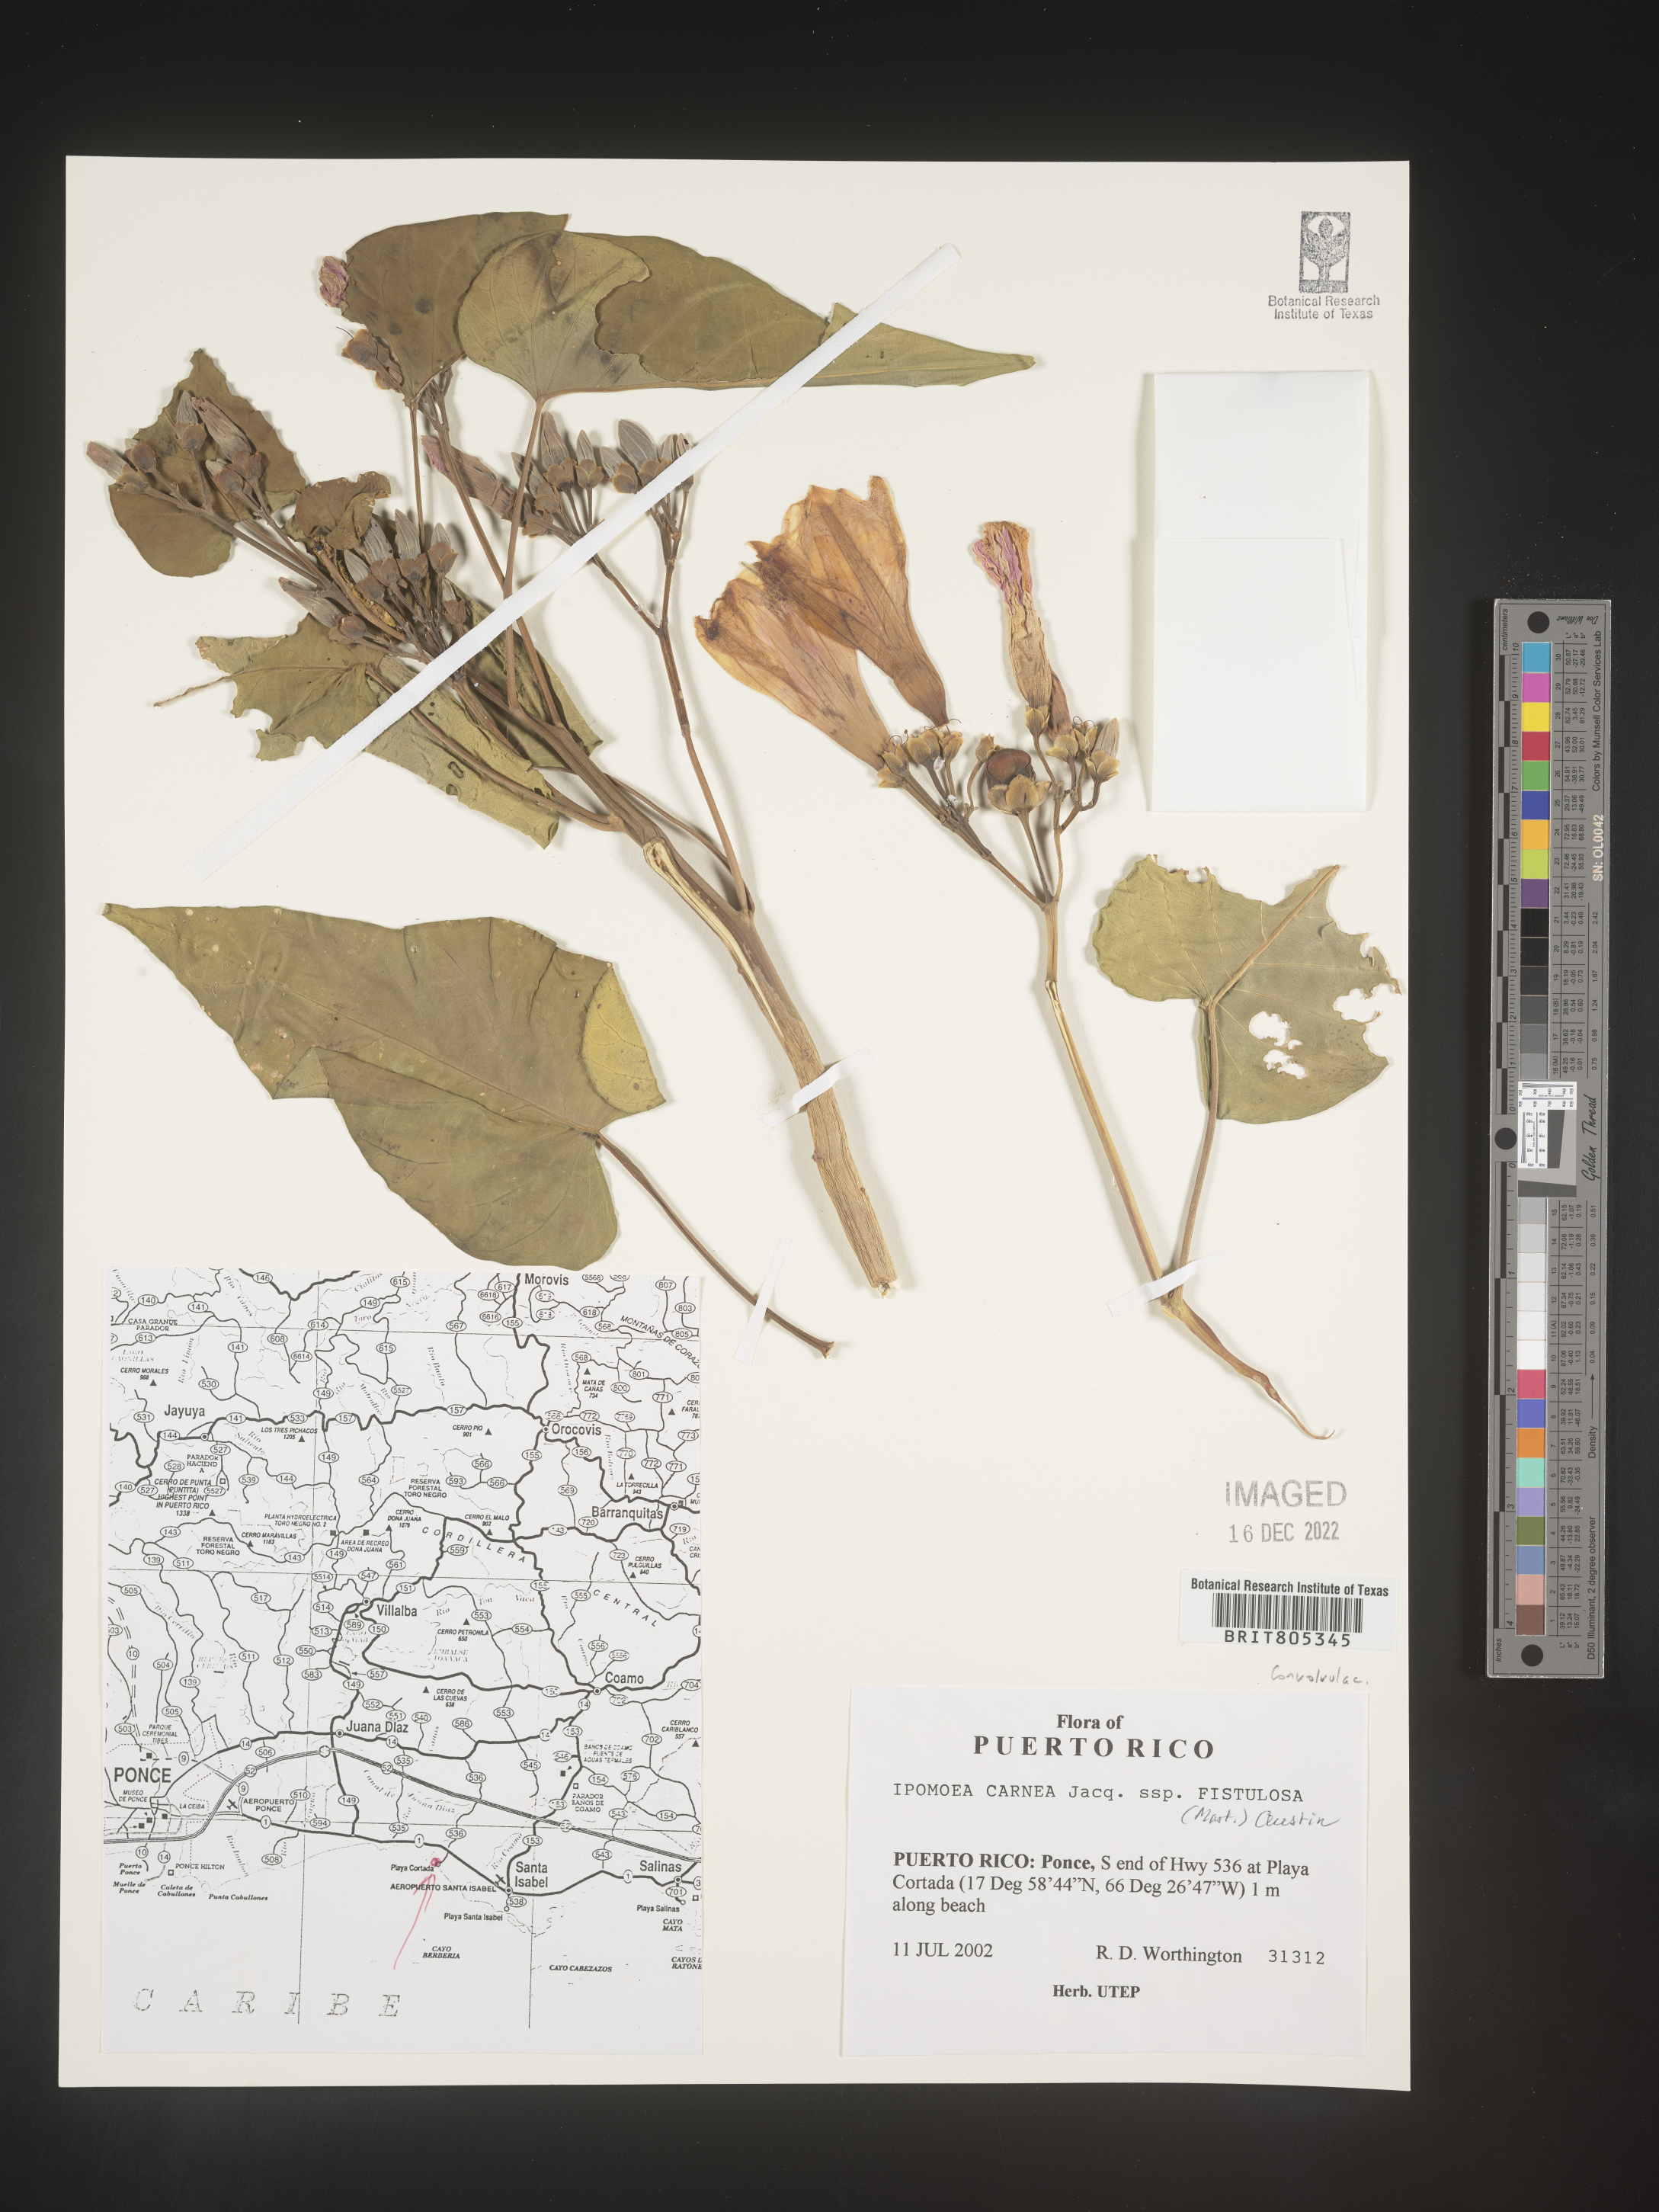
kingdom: Plantae
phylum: Tracheophyta
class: Magnoliopsida
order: Solanales
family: Convolvulaceae
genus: Ipomoea
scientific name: Ipomoea
